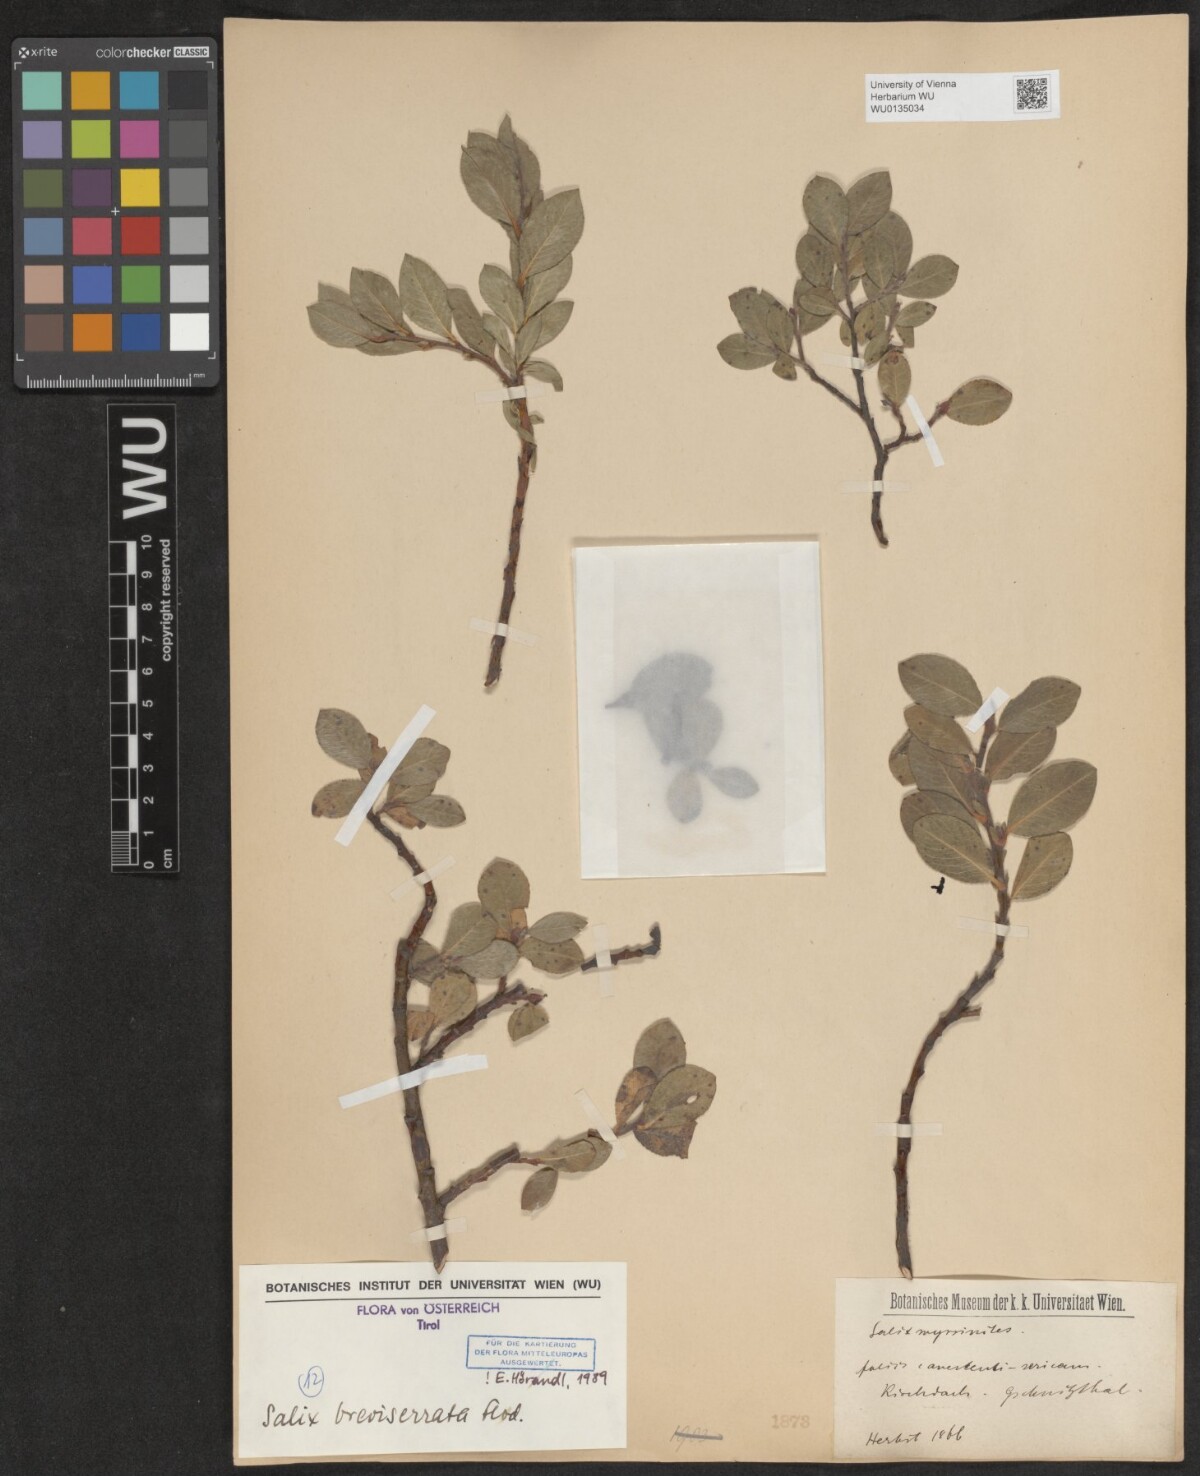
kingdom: Plantae
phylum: Tracheophyta
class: Magnoliopsida
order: Malpighiales
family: Salicaceae
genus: Salix
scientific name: Salix breviserrata
